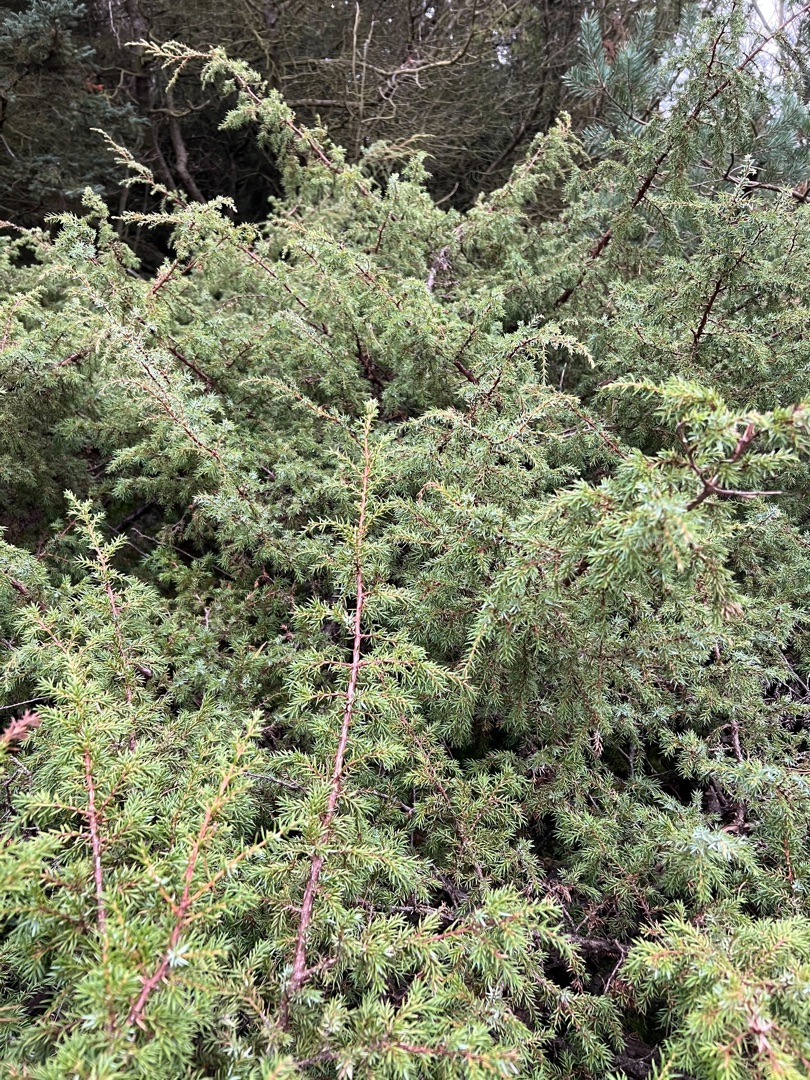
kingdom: Plantae
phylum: Tracheophyta
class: Pinopsida
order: Pinales
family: Cupressaceae
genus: Juniperus
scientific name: Juniperus communis
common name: Almindelig ene
